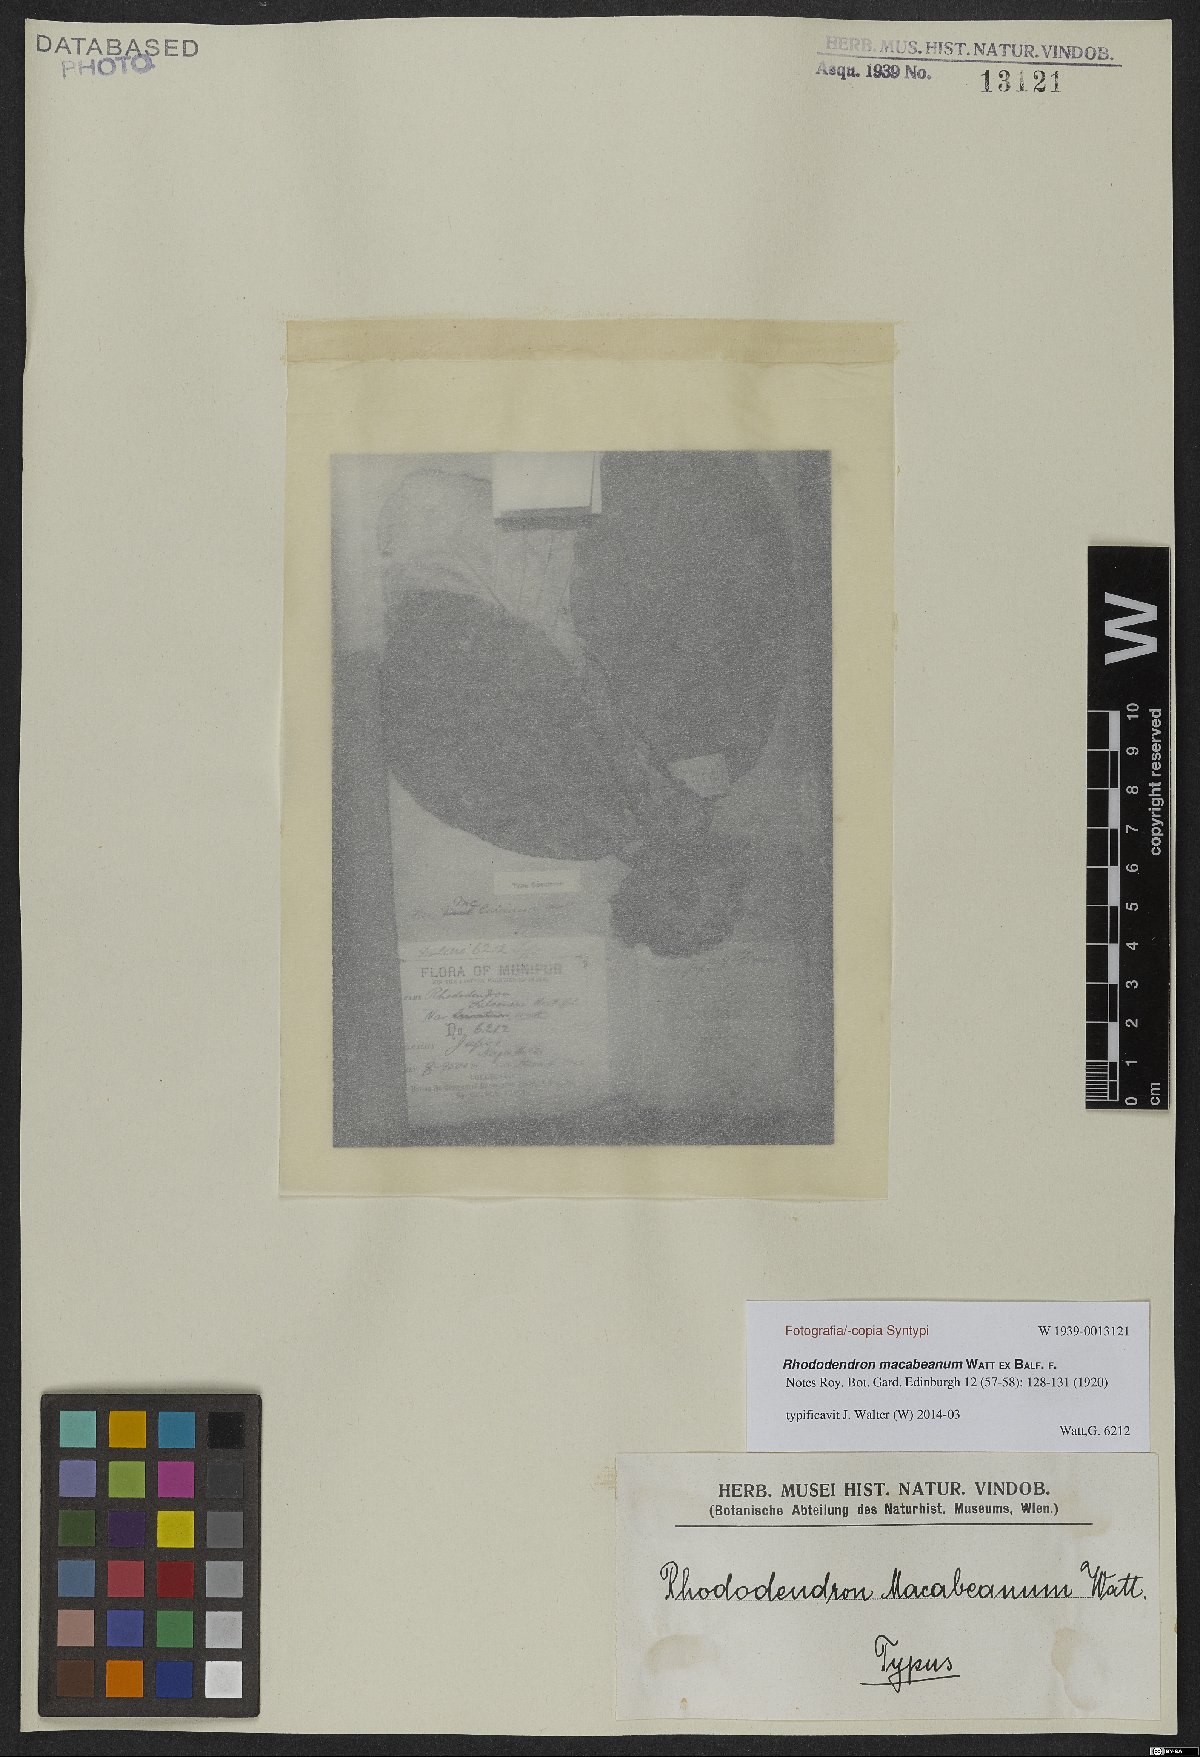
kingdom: Plantae
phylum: Tracheophyta
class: Magnoliopsida
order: Ericales
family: Ericaceae
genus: Rhododendron
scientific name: Rhododendron macabeanum
